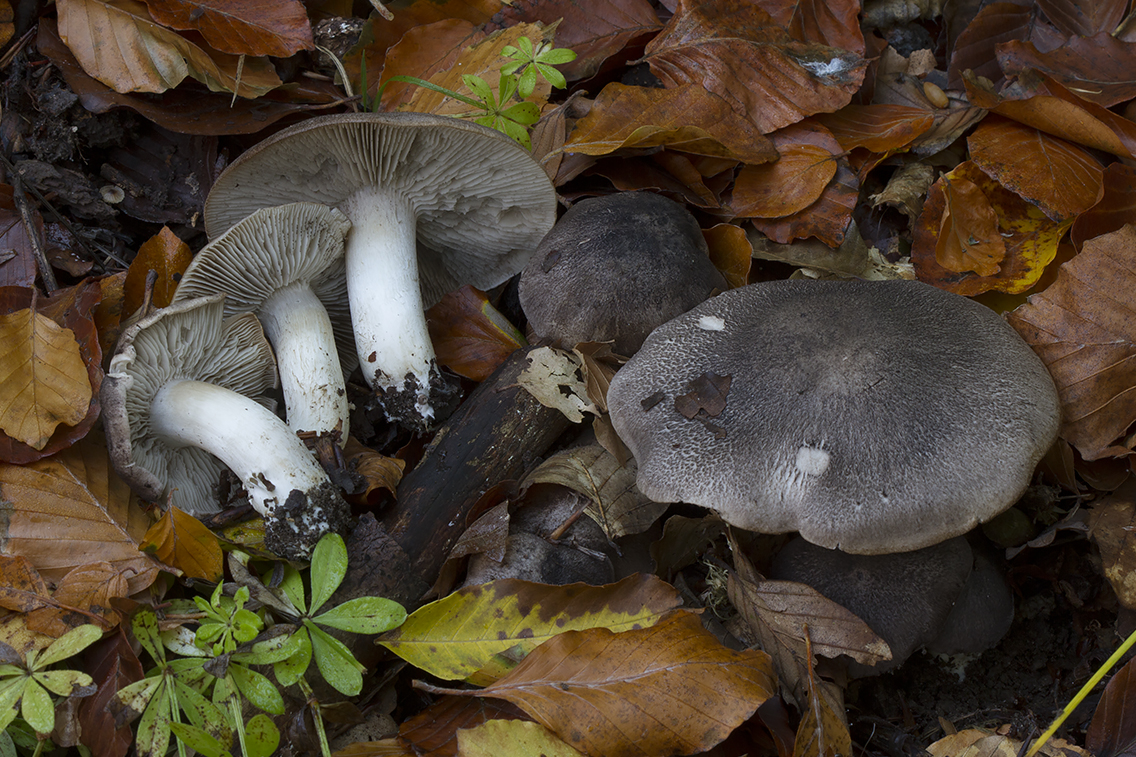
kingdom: Fungi
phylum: Basidiomycota
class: Agaricomycetes
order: Agaricales
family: Tricholomataceae
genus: Tricholoma
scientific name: Tricholoma orirubens
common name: rødbladet ridderhat
